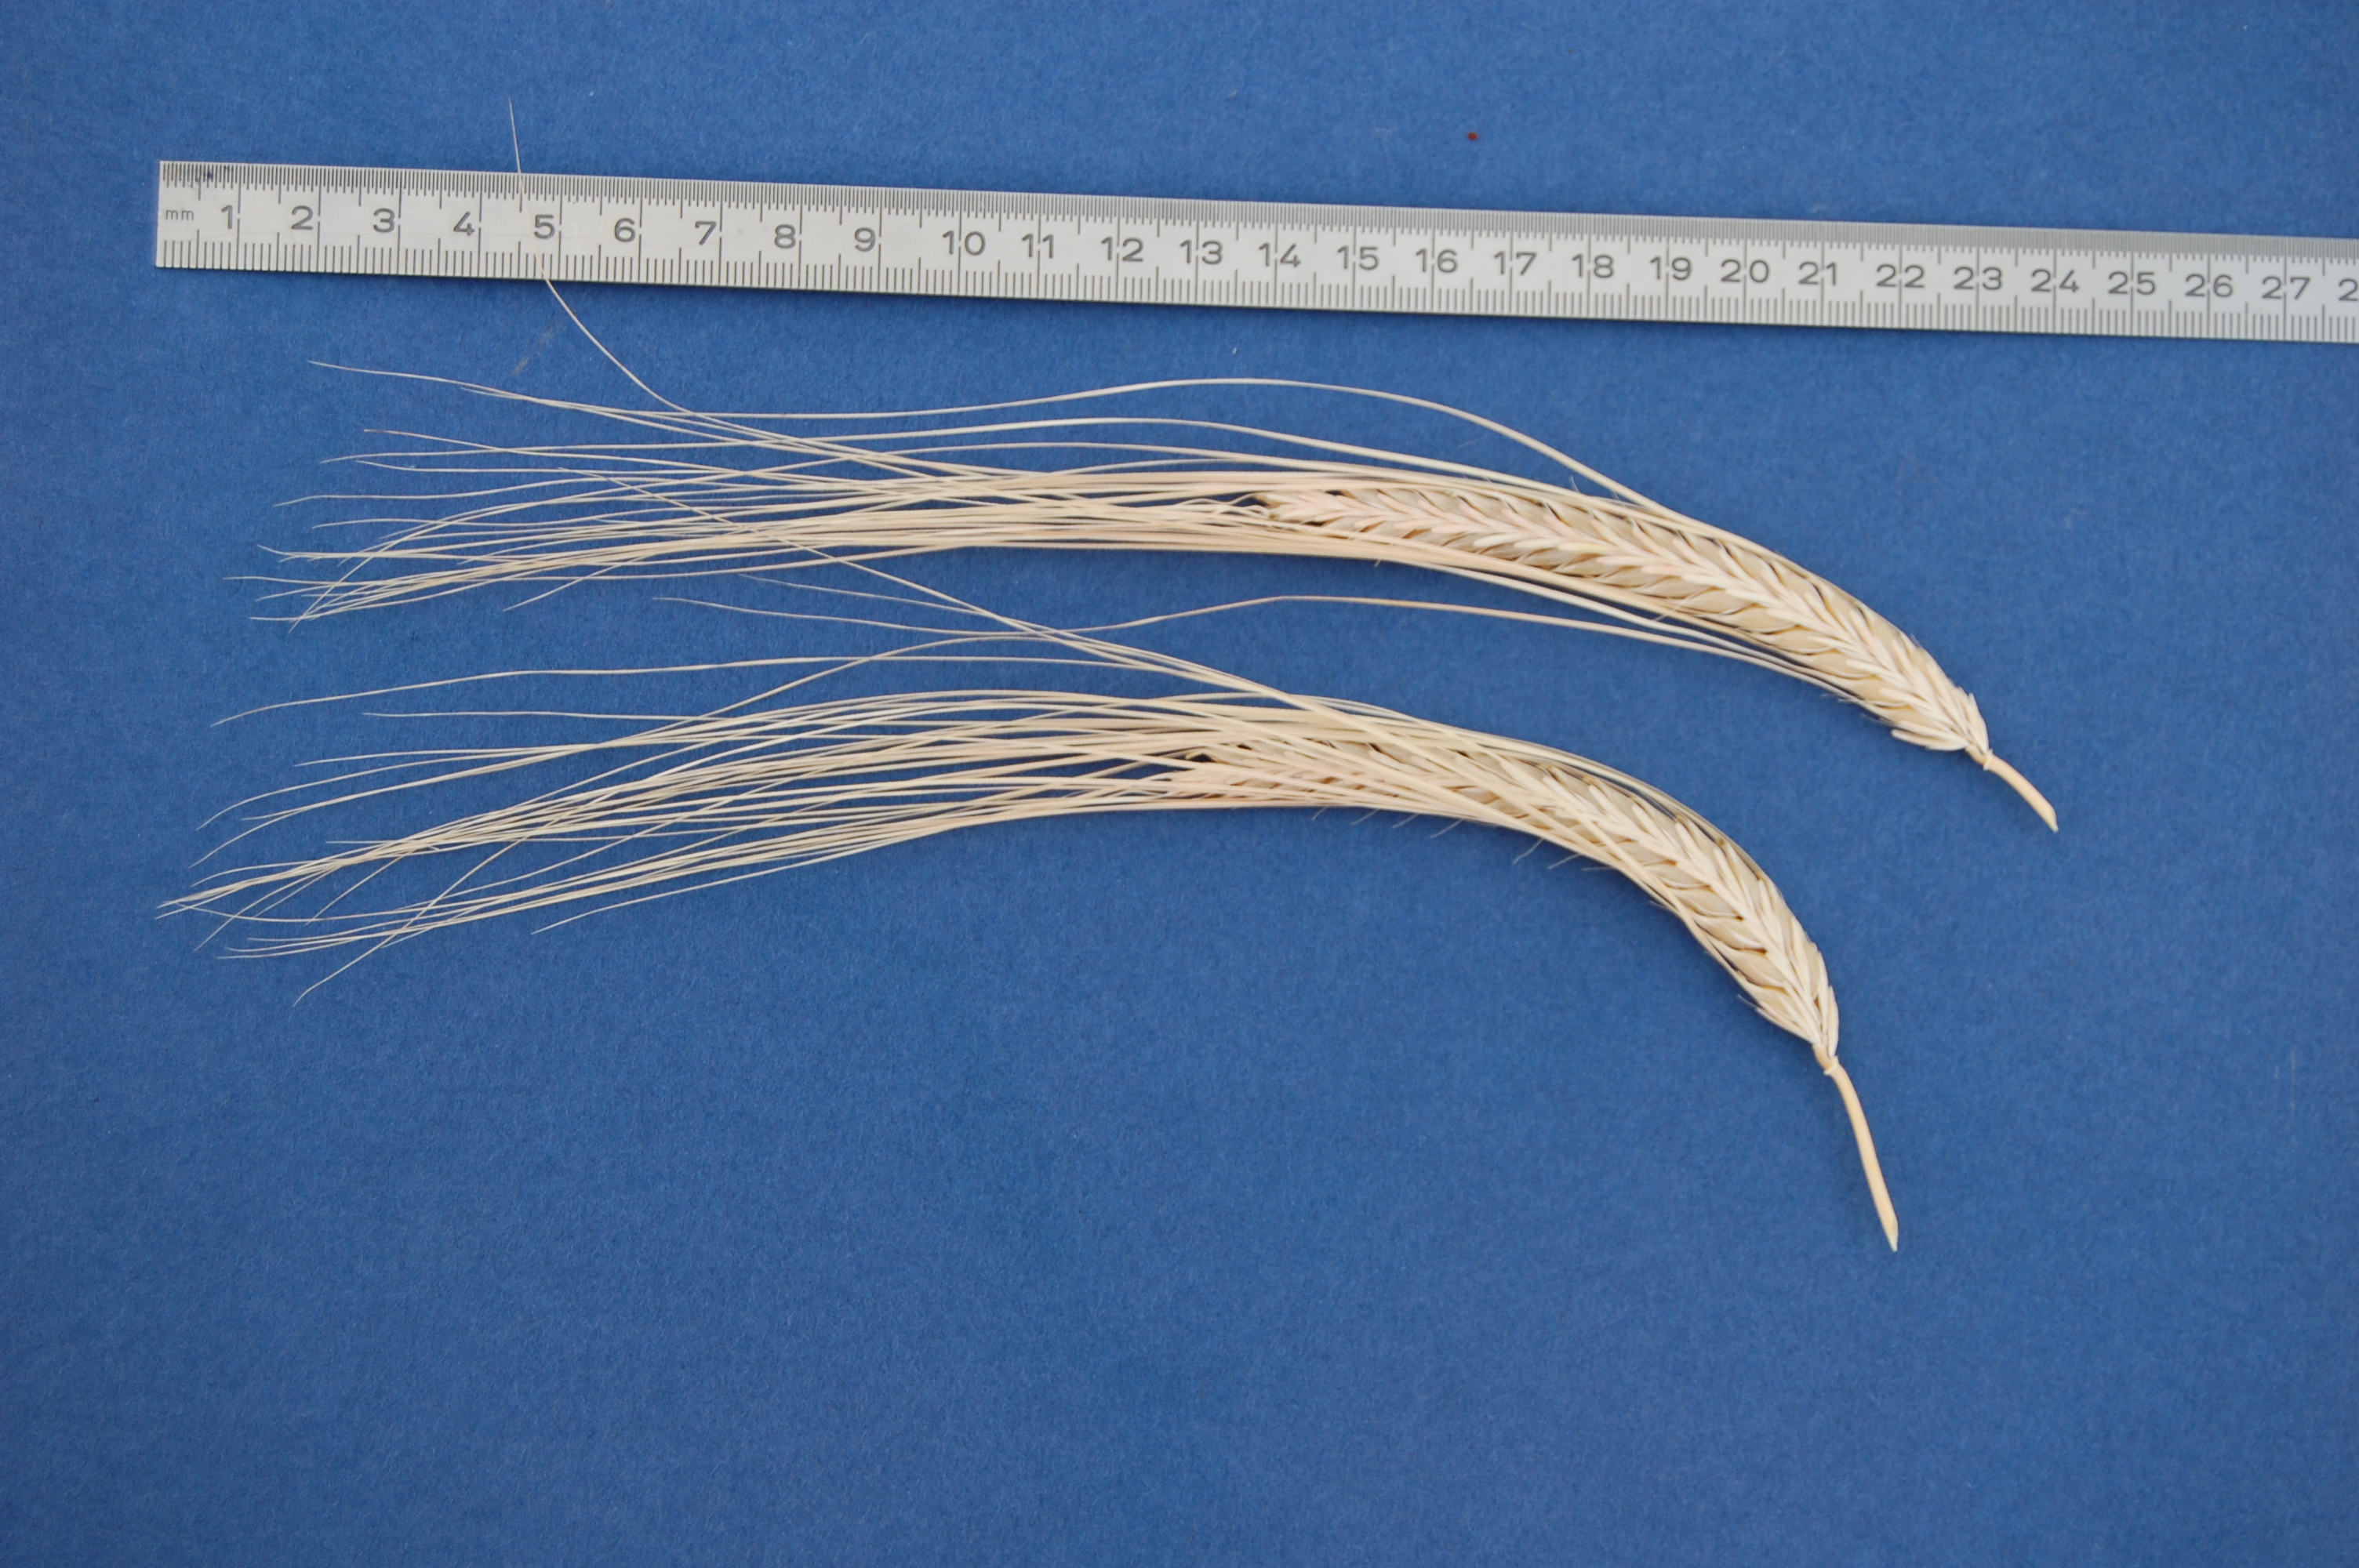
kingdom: Plantae
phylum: Tracheophyta
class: Liliopsida
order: Poales
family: Poaceae
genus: Hordeum
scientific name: Hordeum vulgare
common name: Common barley
